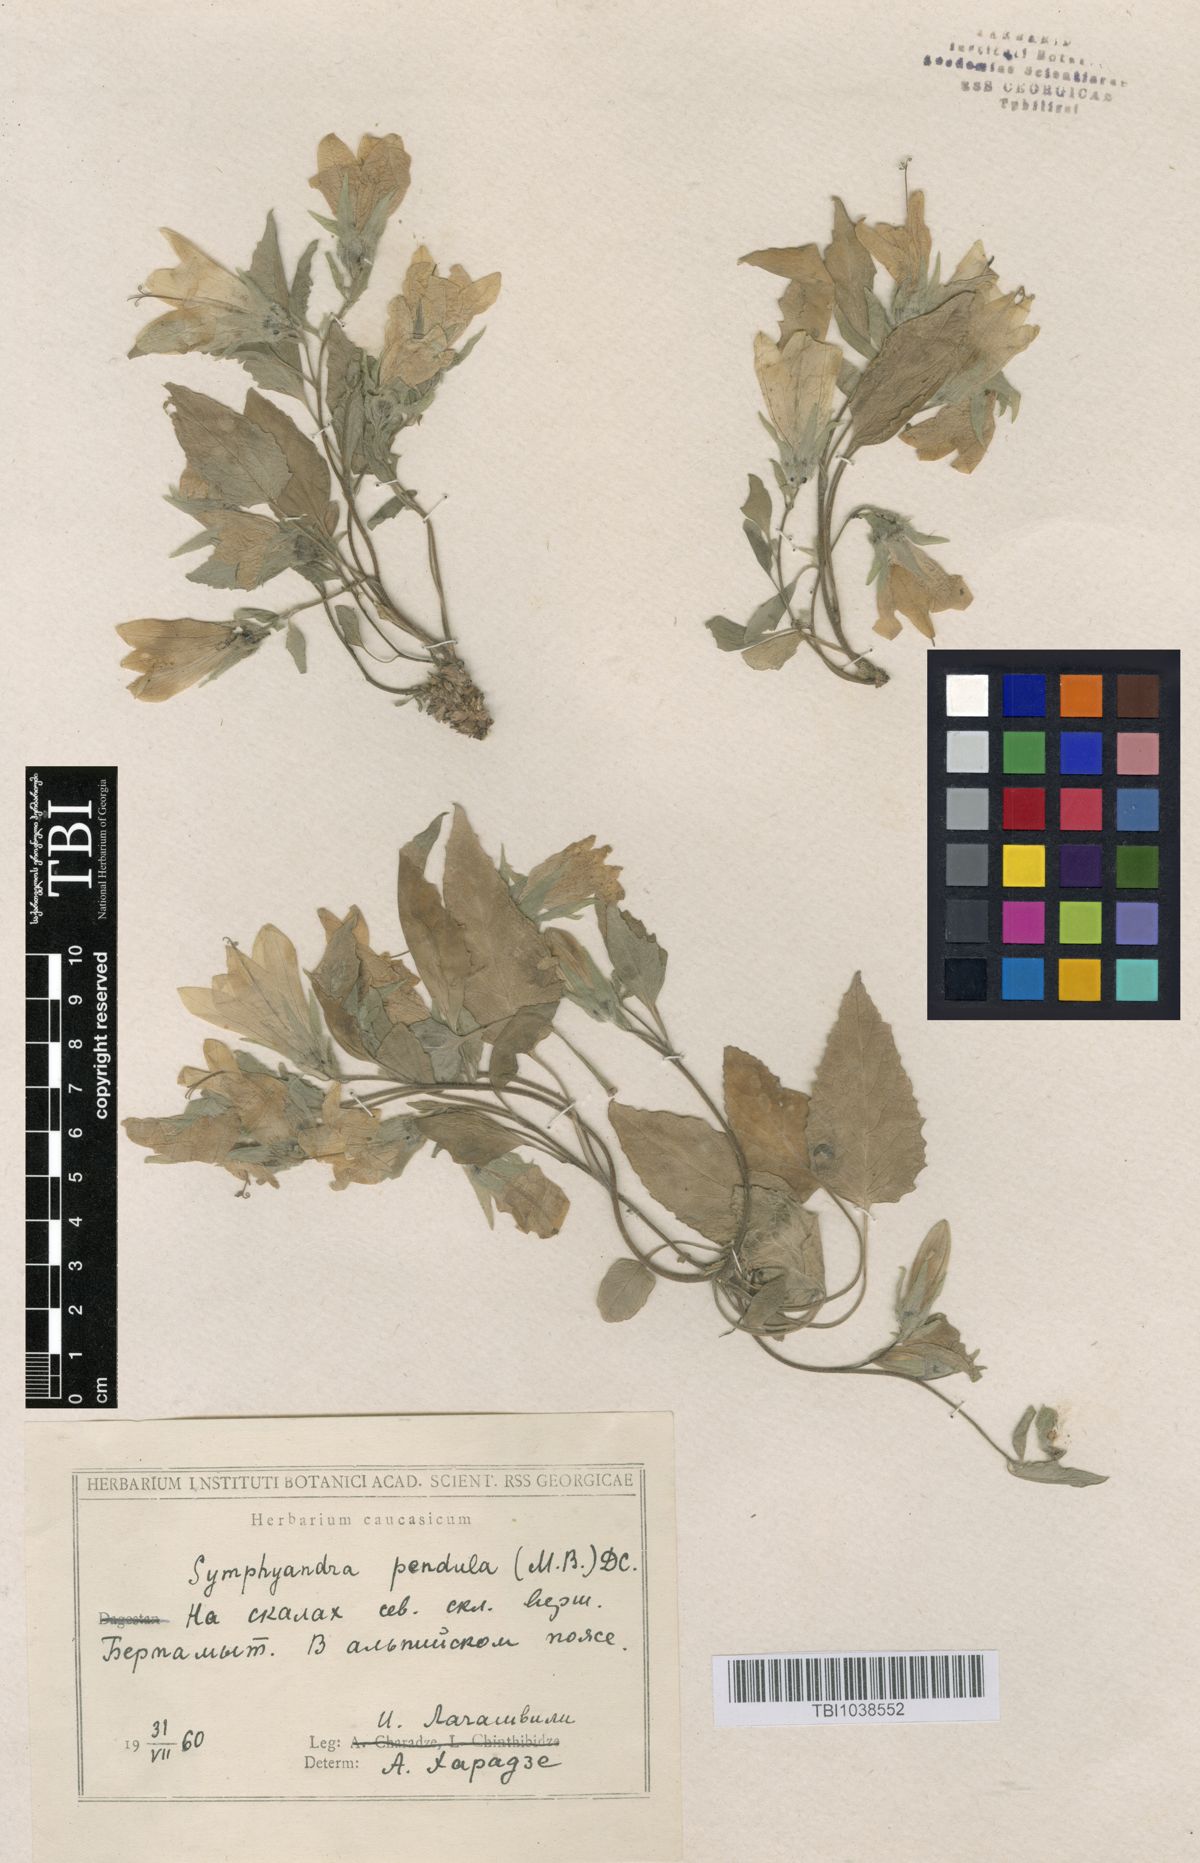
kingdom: Plantae
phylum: Tracheophyta
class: Magnoliopsida
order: Asterales
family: Campanulaceae
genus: Campanula
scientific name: Campanula pendula
